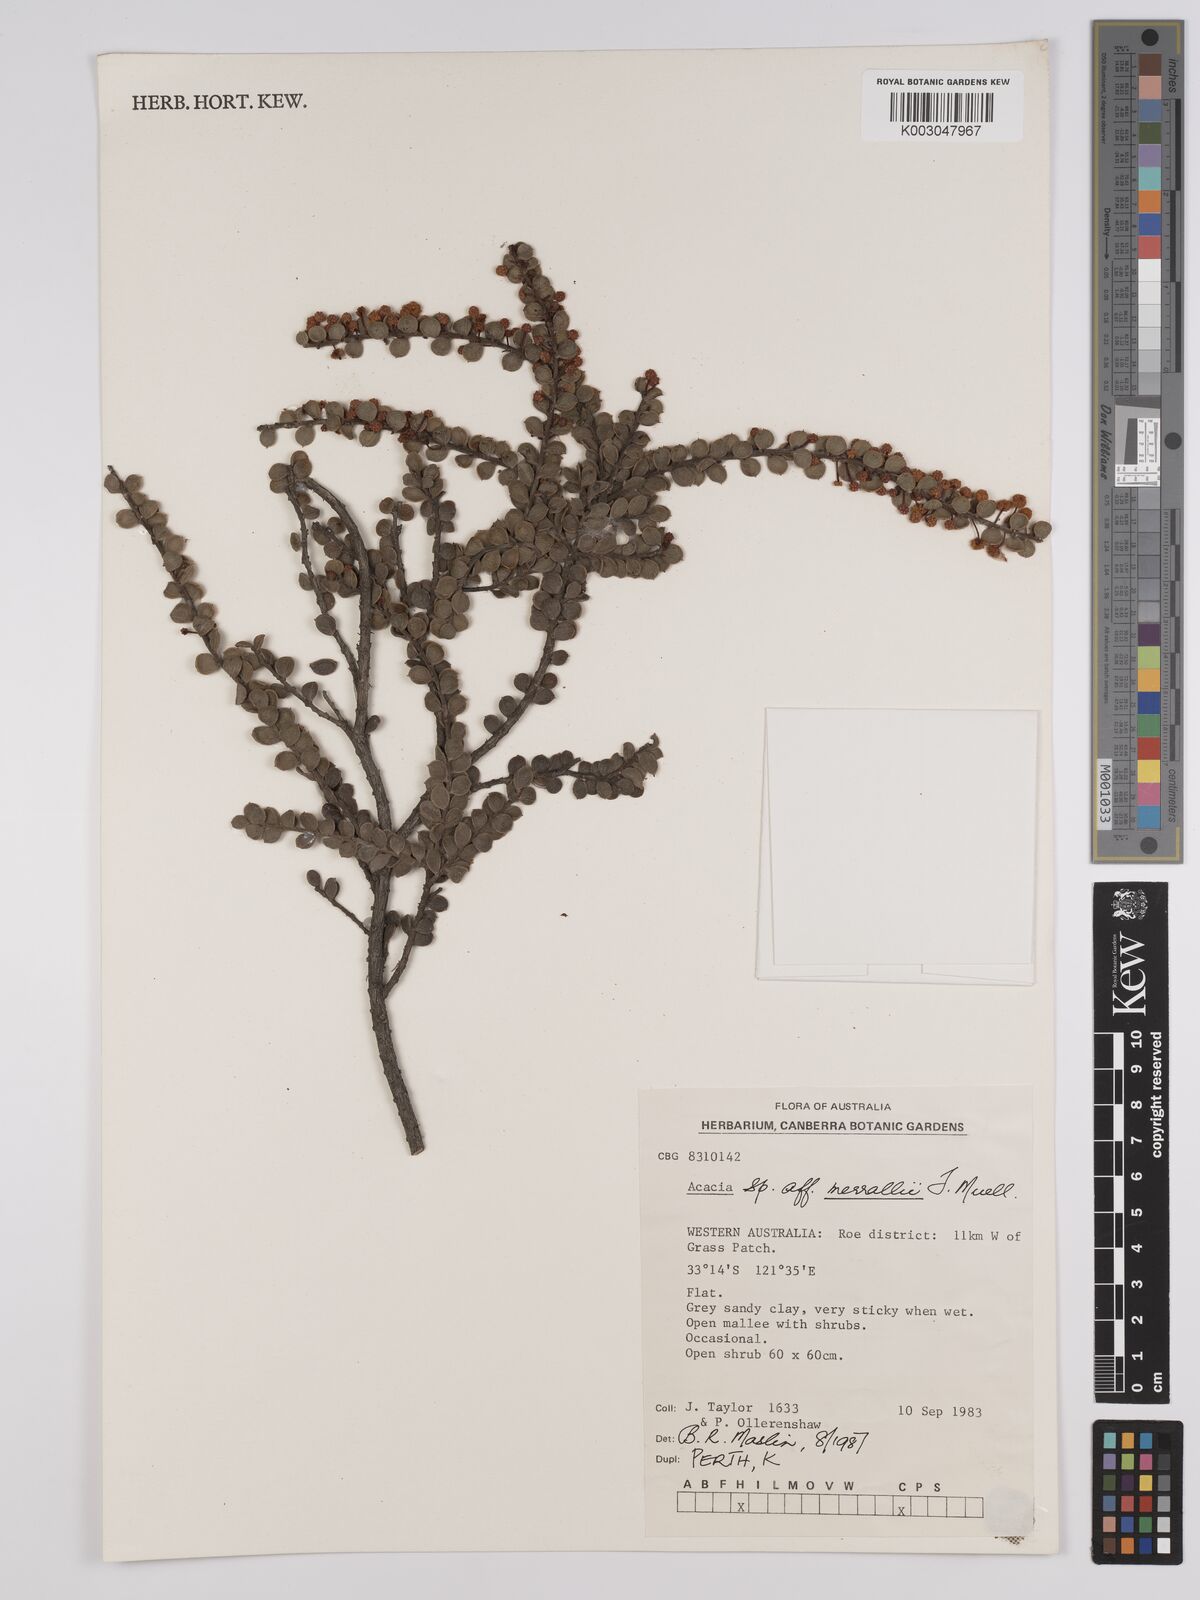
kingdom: Plantae
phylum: Tracheophyta
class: Magnoliopsida
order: Fabales
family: Fabaceae
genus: Acacia
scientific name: Acacia merrallii
